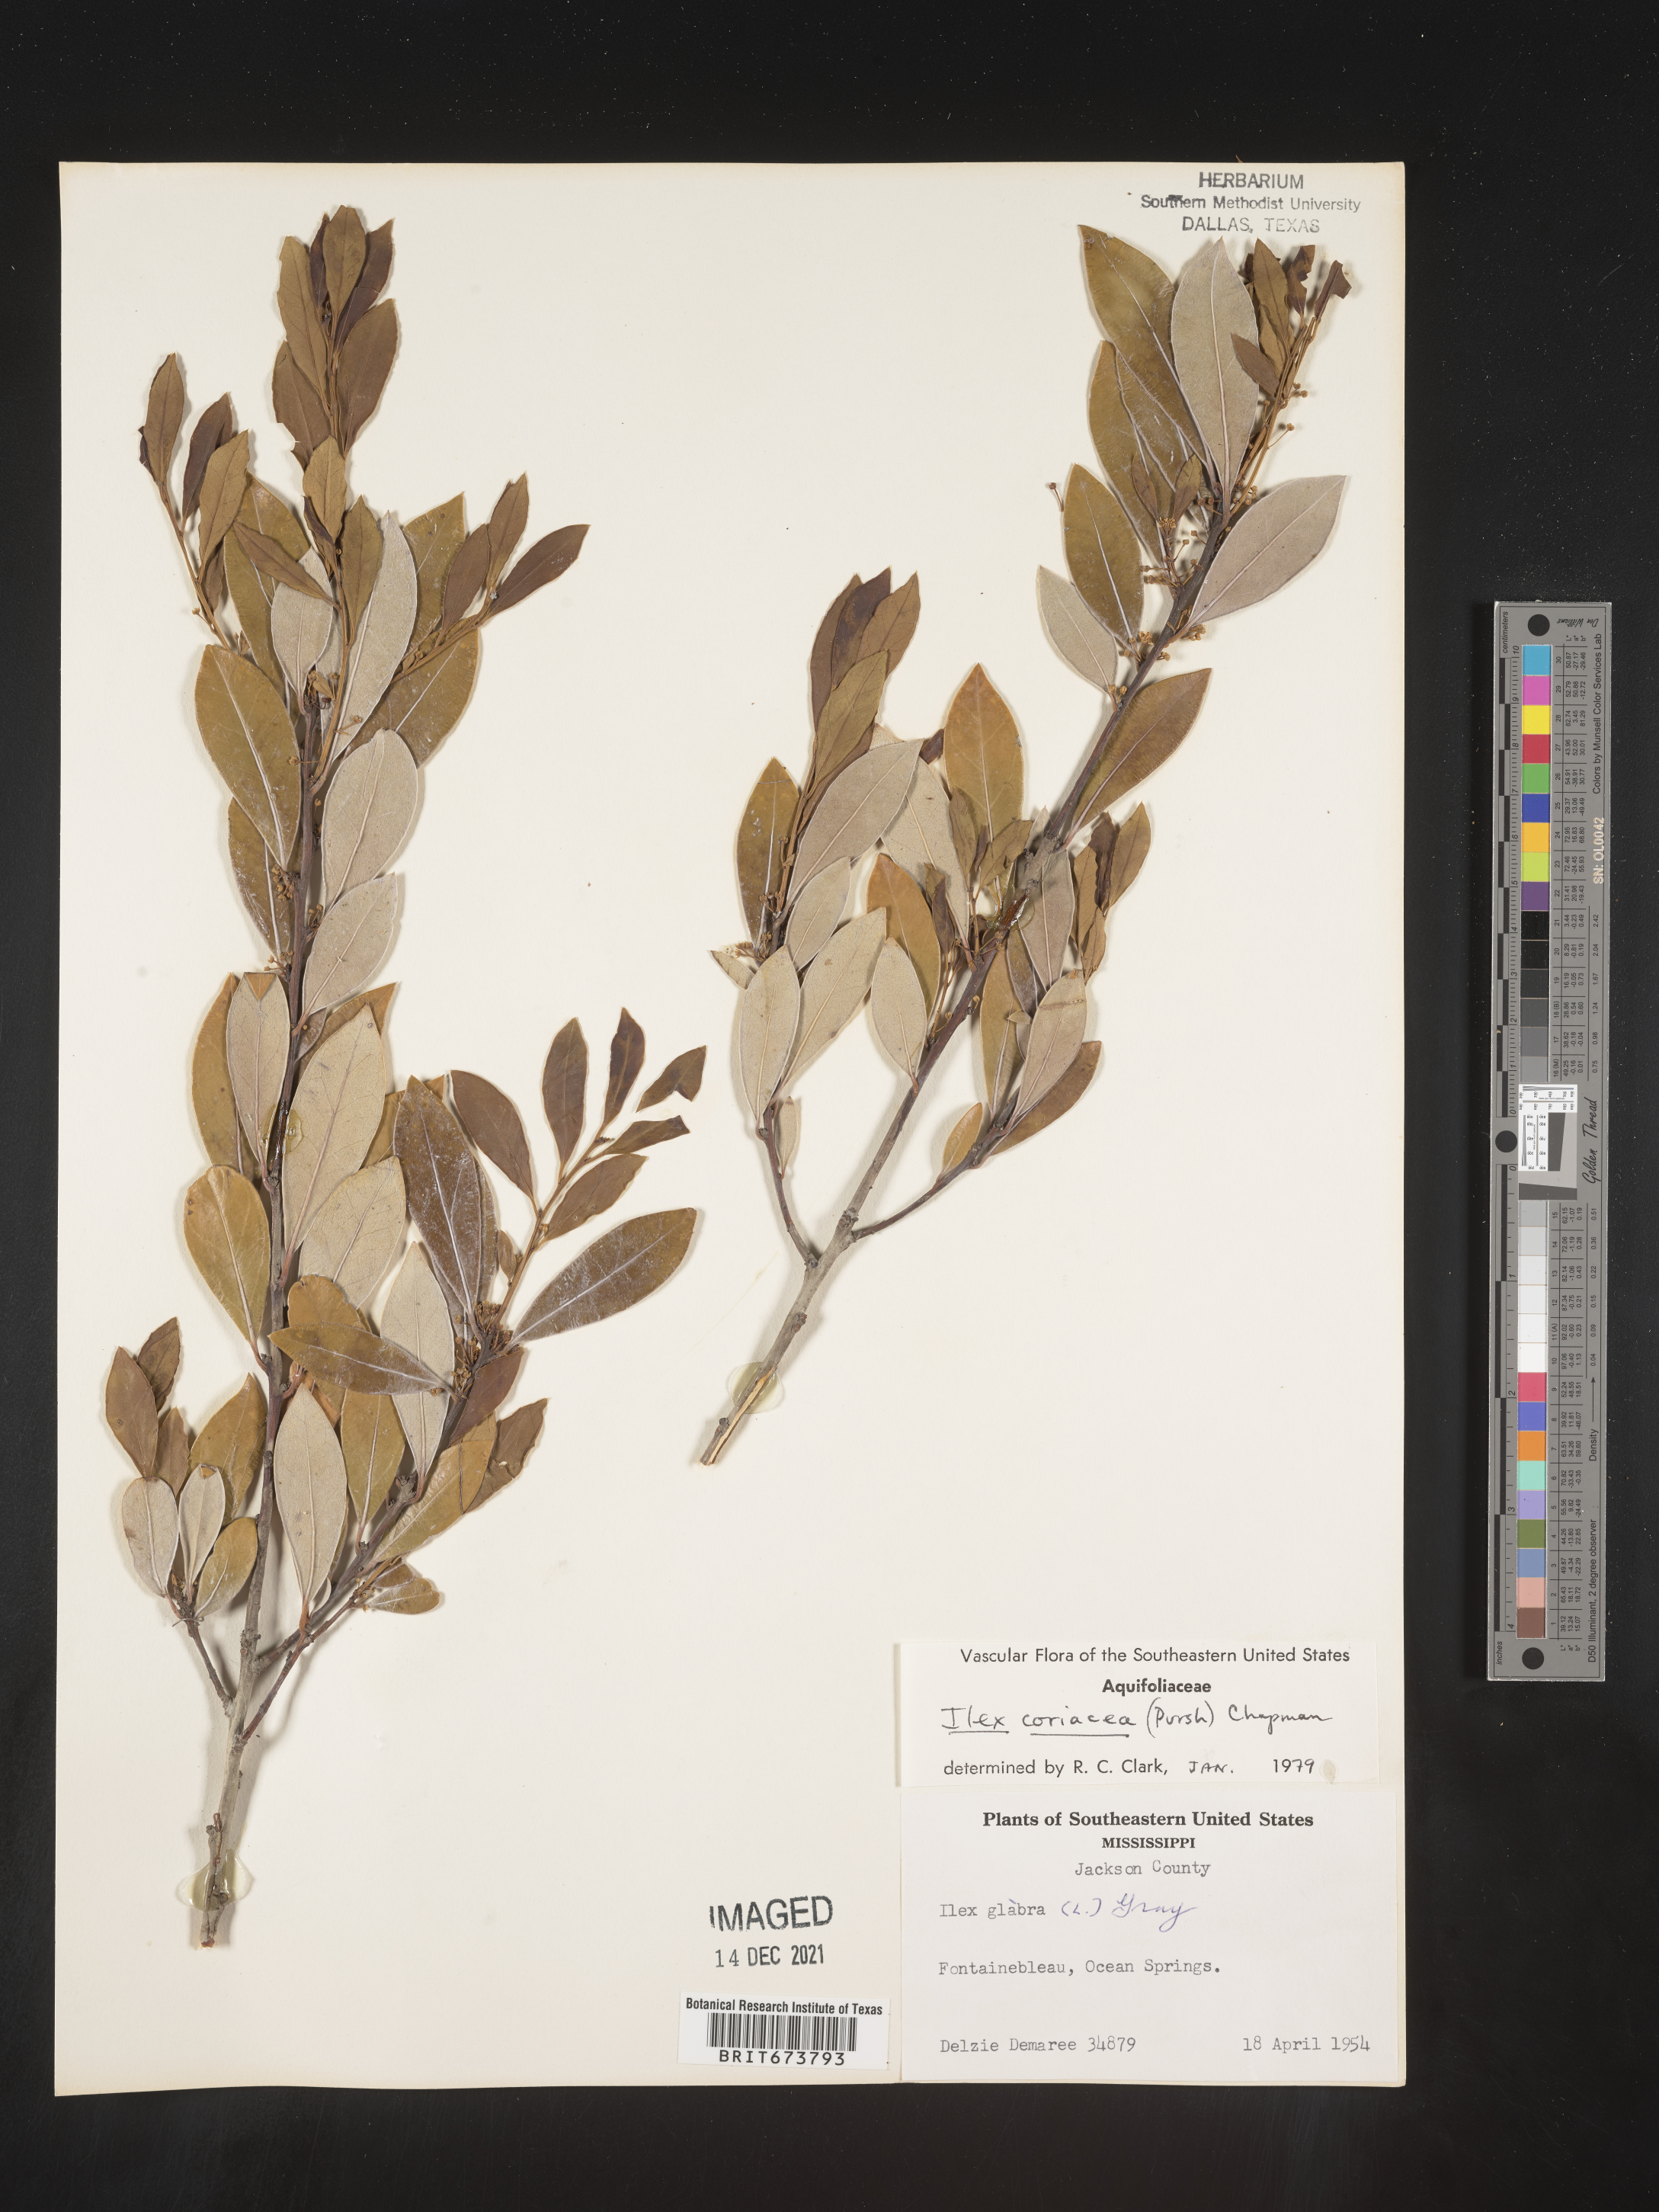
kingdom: Plantae
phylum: Tracheophyta
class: Magnoliopsida
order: Aquifoliales
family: Aquifoliaceae
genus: Ilex
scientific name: Ilex coriacea
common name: Sweet gallberry
